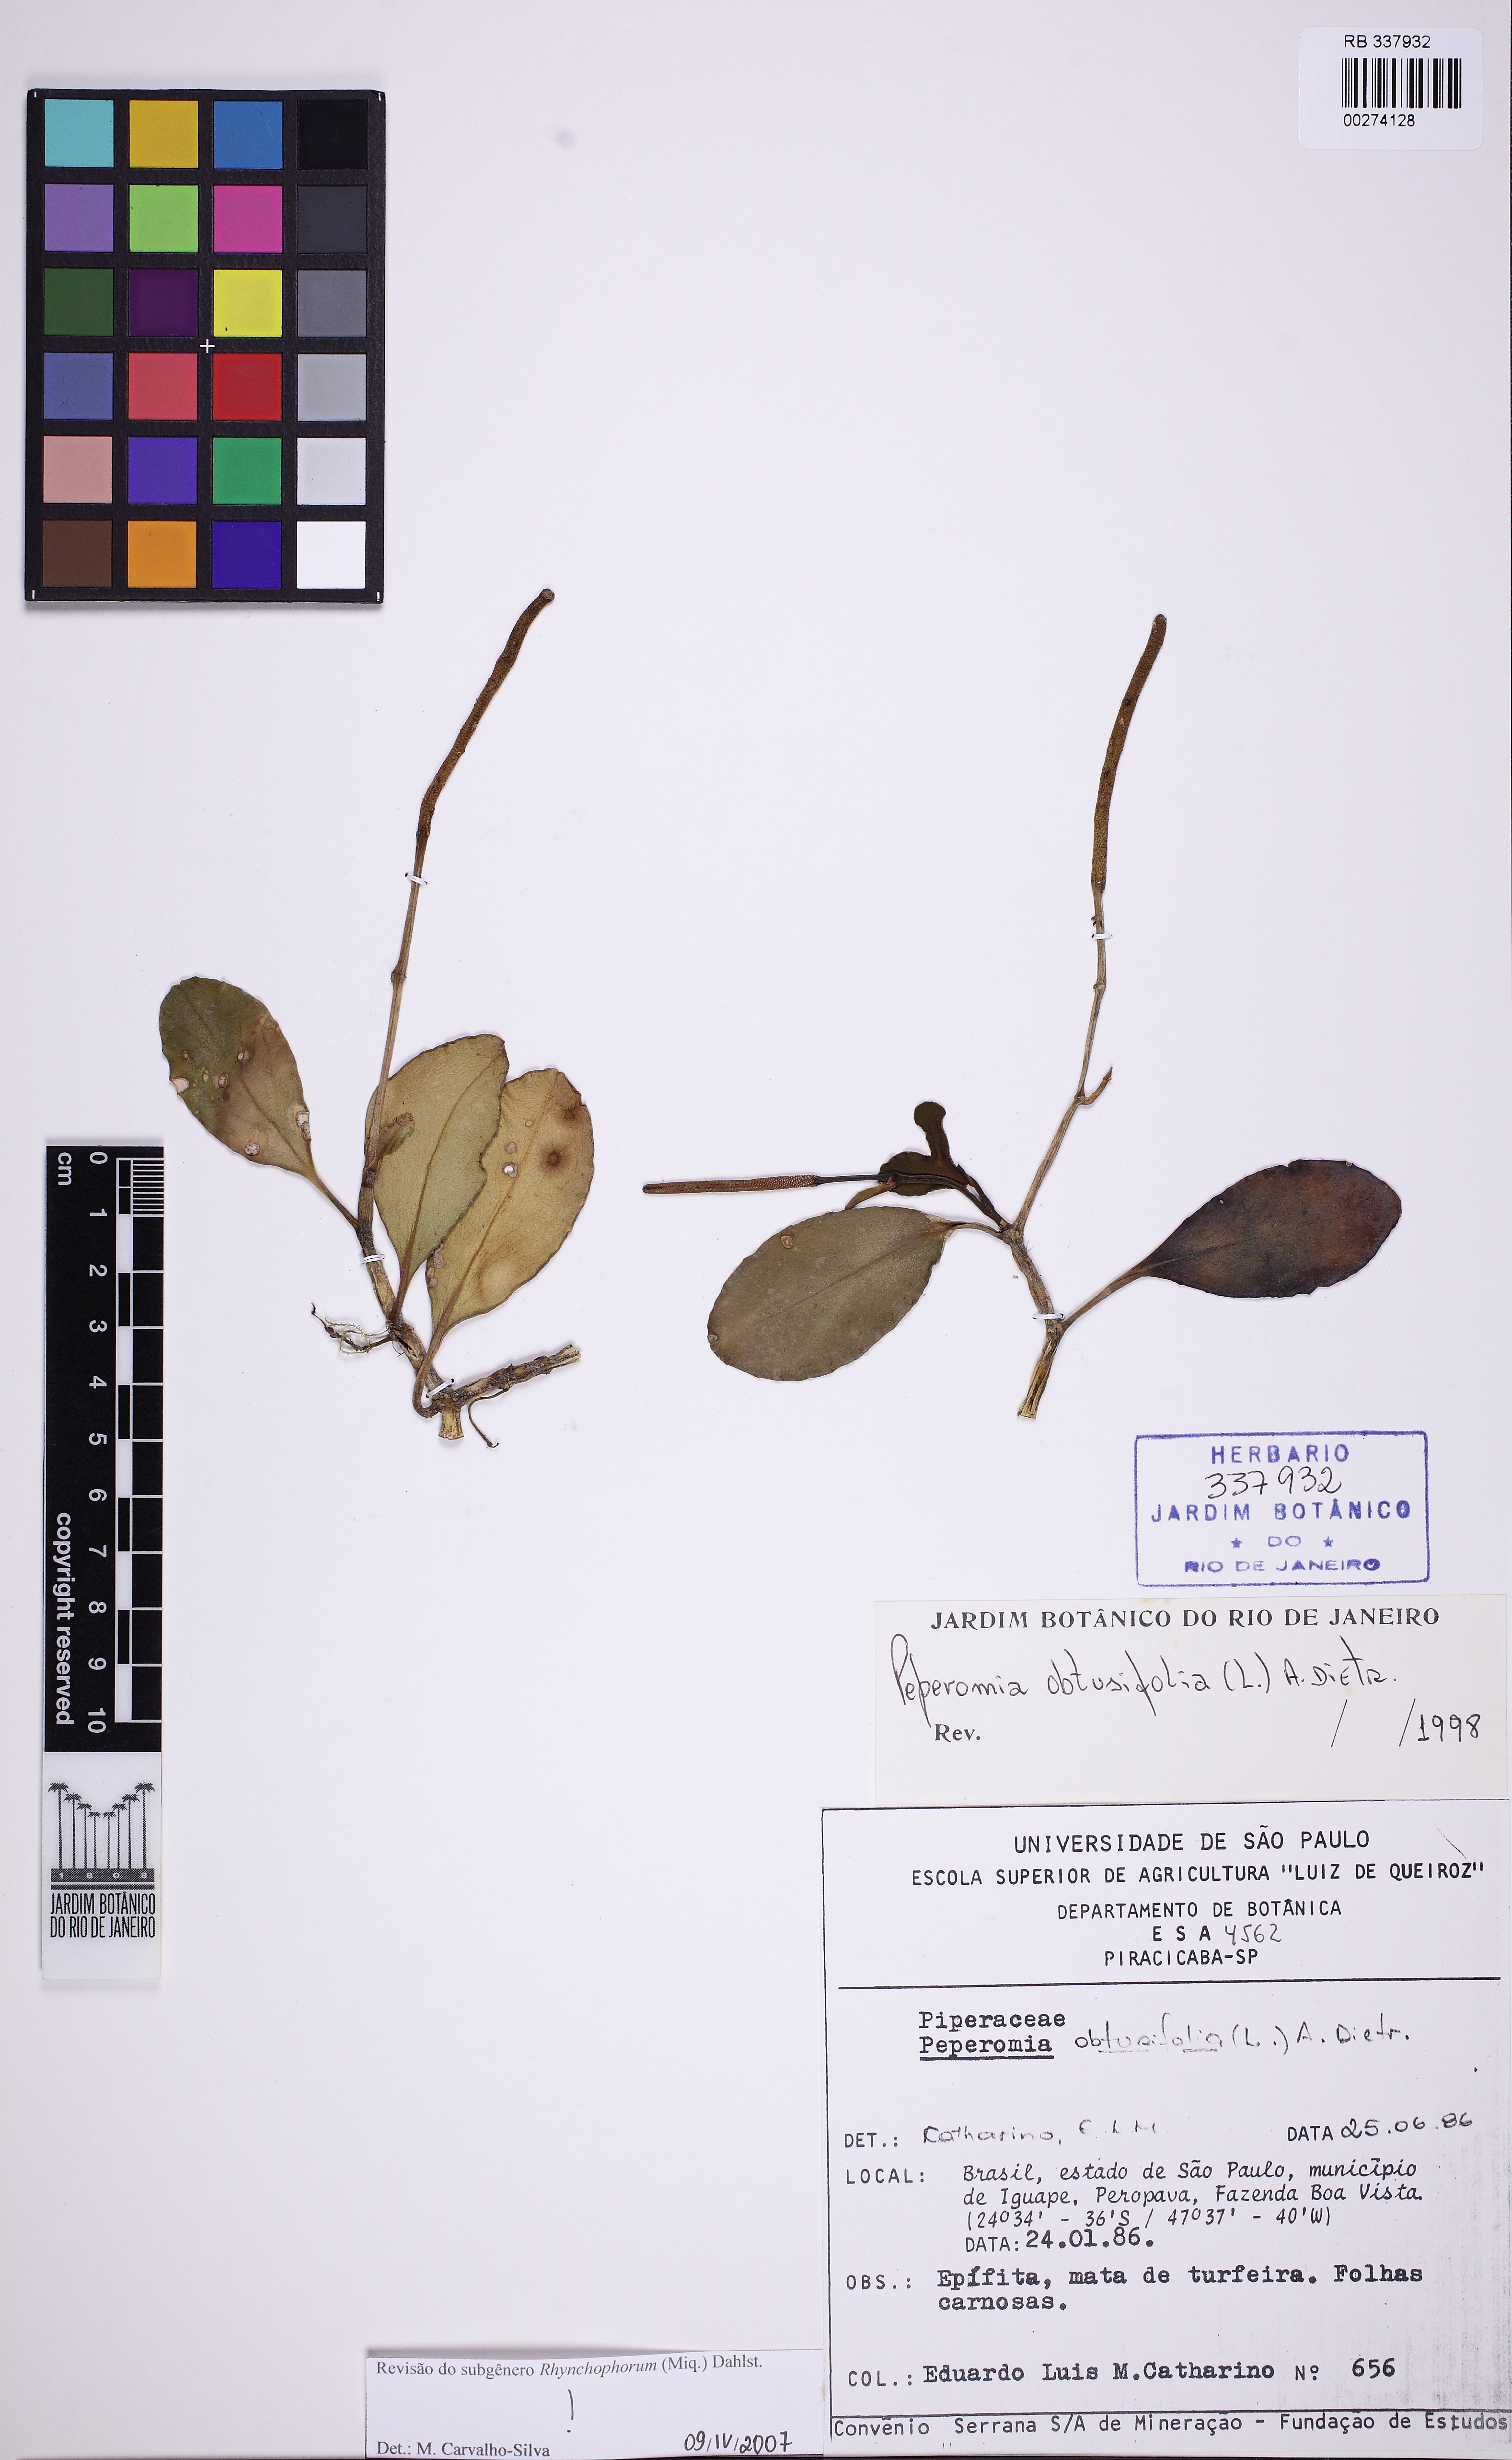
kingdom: Plantae
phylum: Tracheophyta
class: Magnoliopsida
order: Piperales
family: Piperaceae
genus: Peperomia
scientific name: Peperomia obtusifolia
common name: Baby rubberplant
